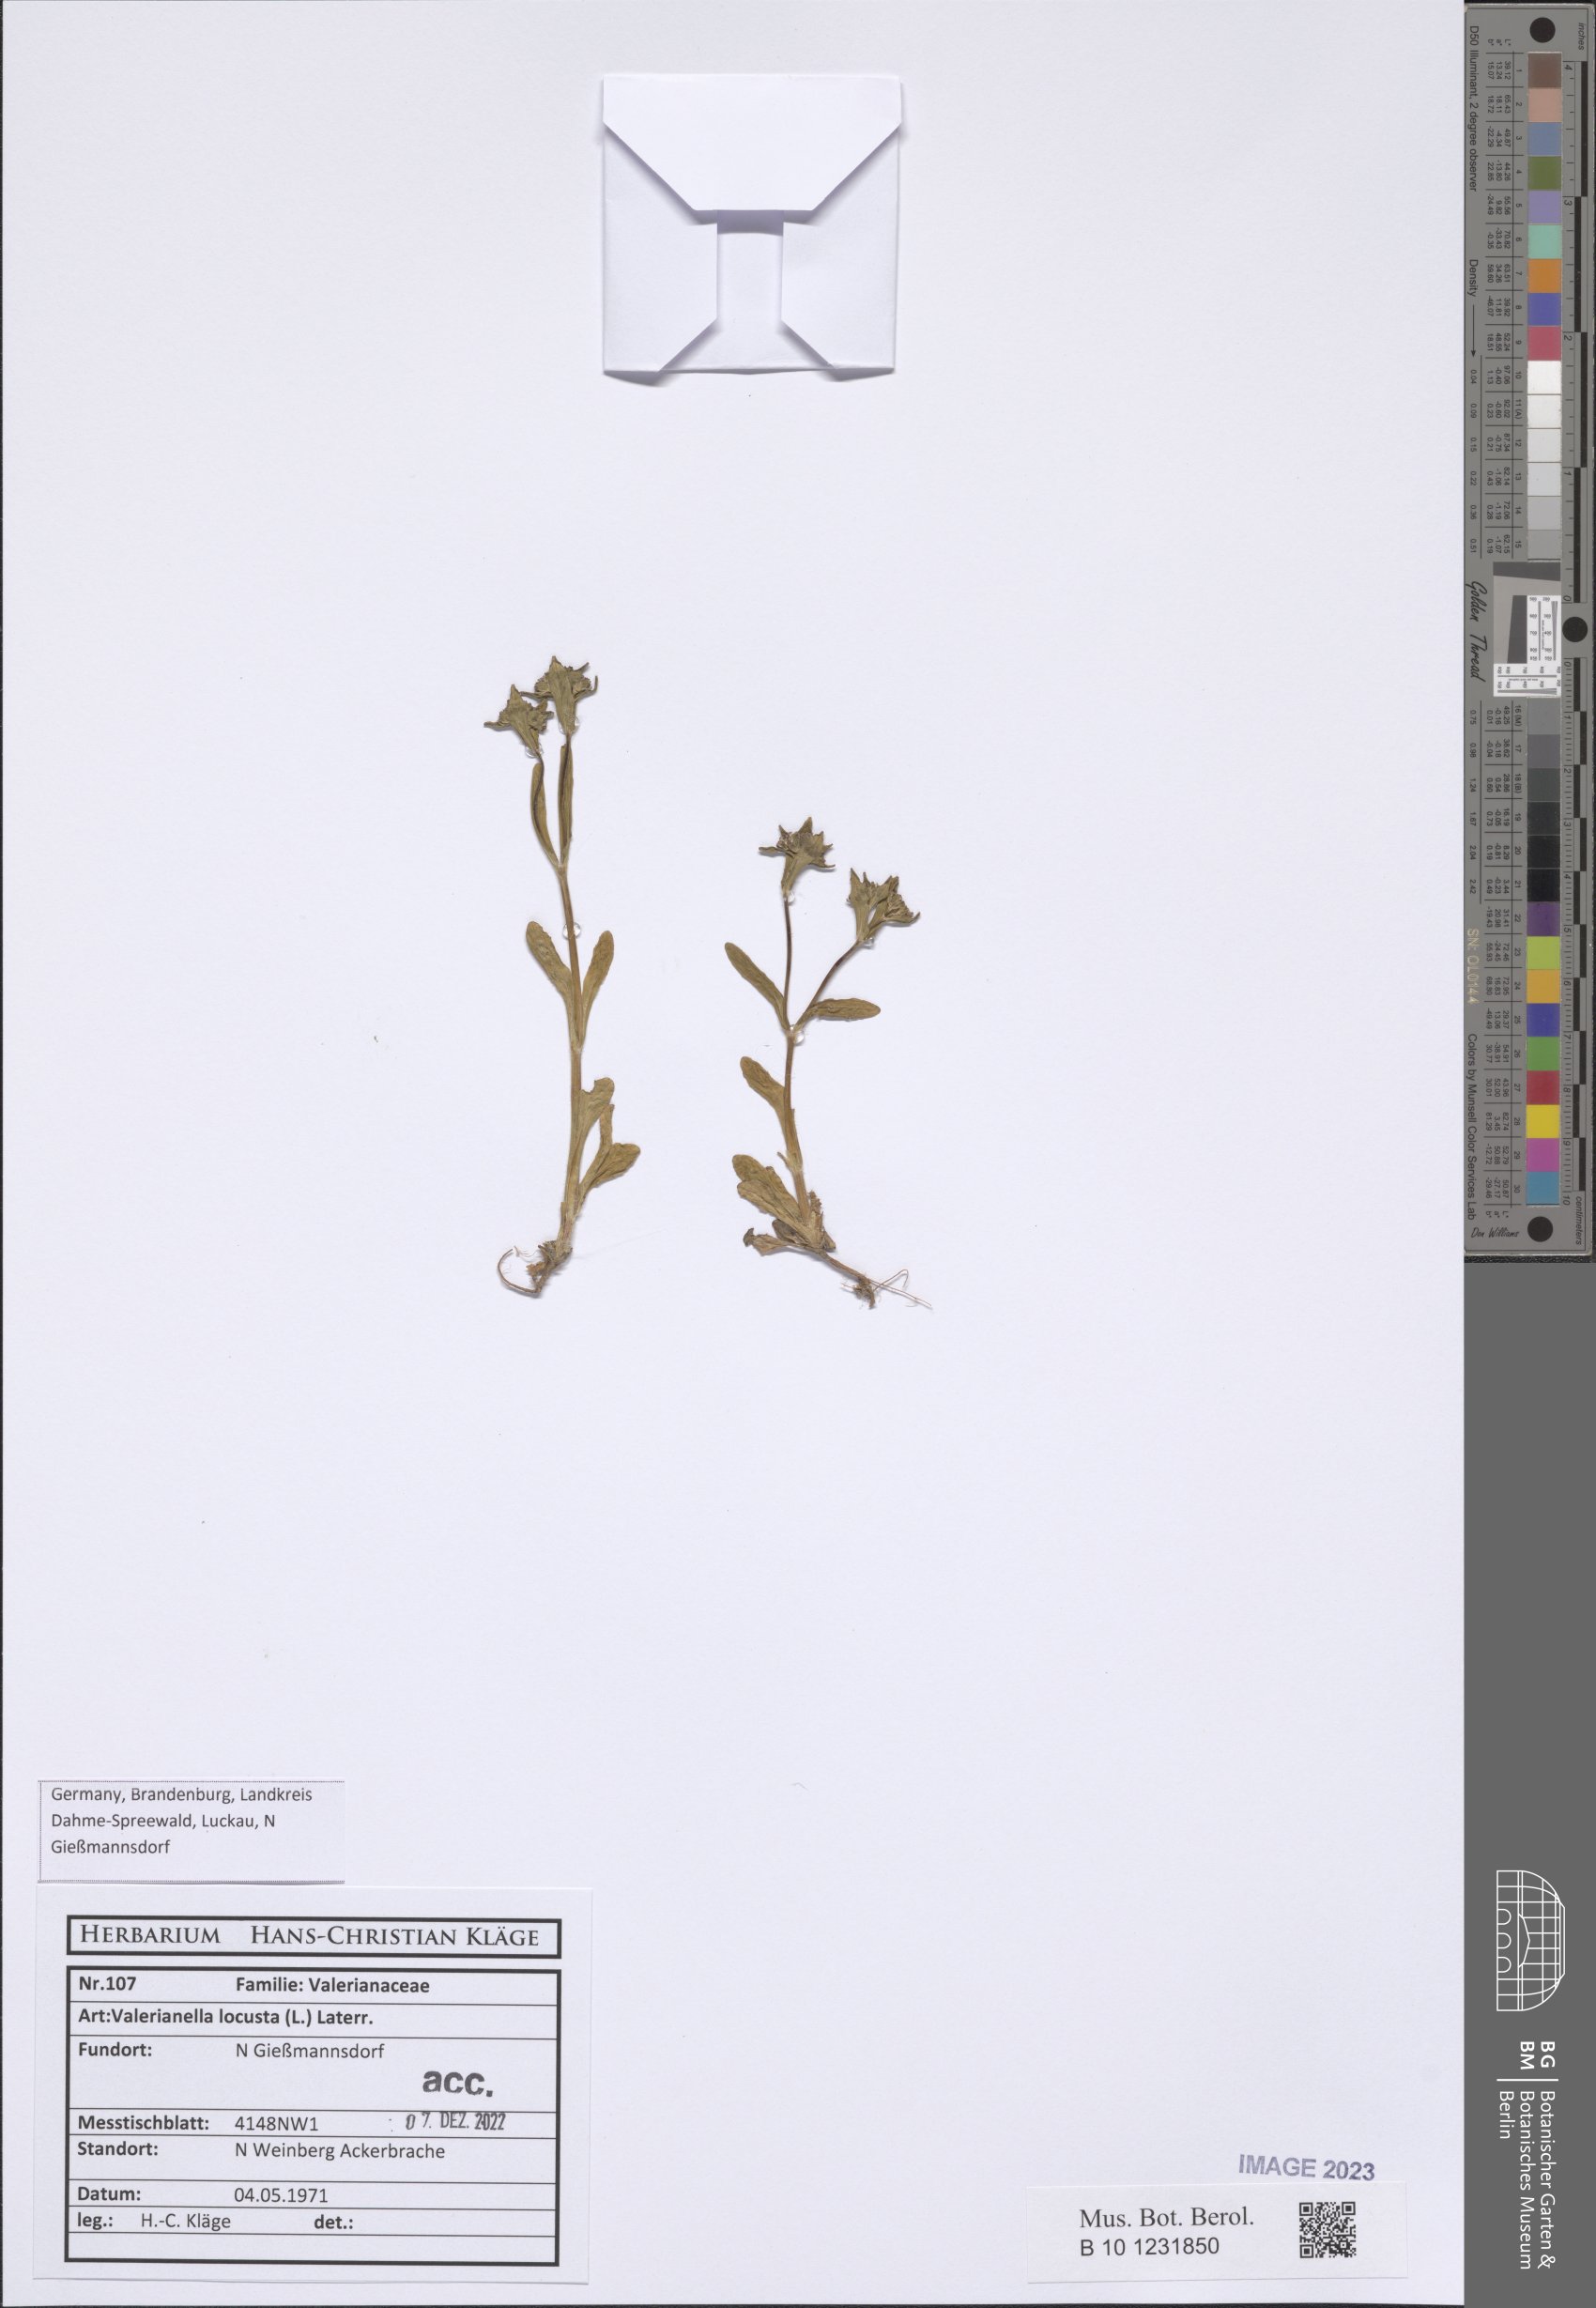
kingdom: Plantae
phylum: Tracheophyta
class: Magnoliopsida
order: Dipsacales
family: Caprifoliaceae
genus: Valerianella
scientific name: Valerianella locusta
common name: Common cornsalad
